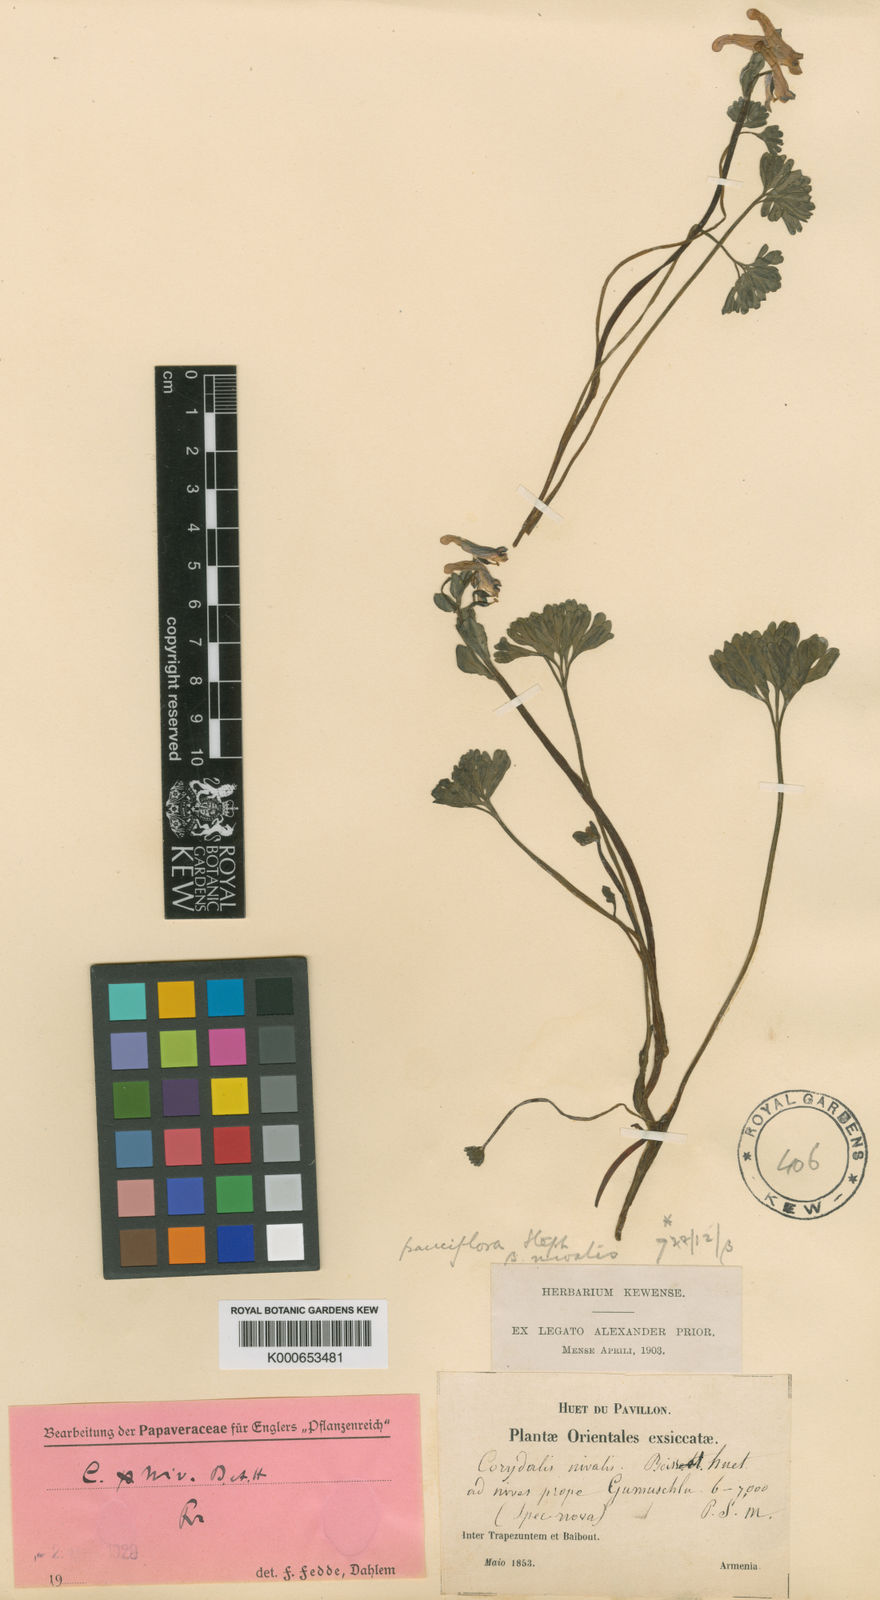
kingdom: Plantae
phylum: Tracheophyta
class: Magnoliopsida
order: Ranunculales
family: Papaveraceae
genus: Corydalis
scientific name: Corydalis alpestris
